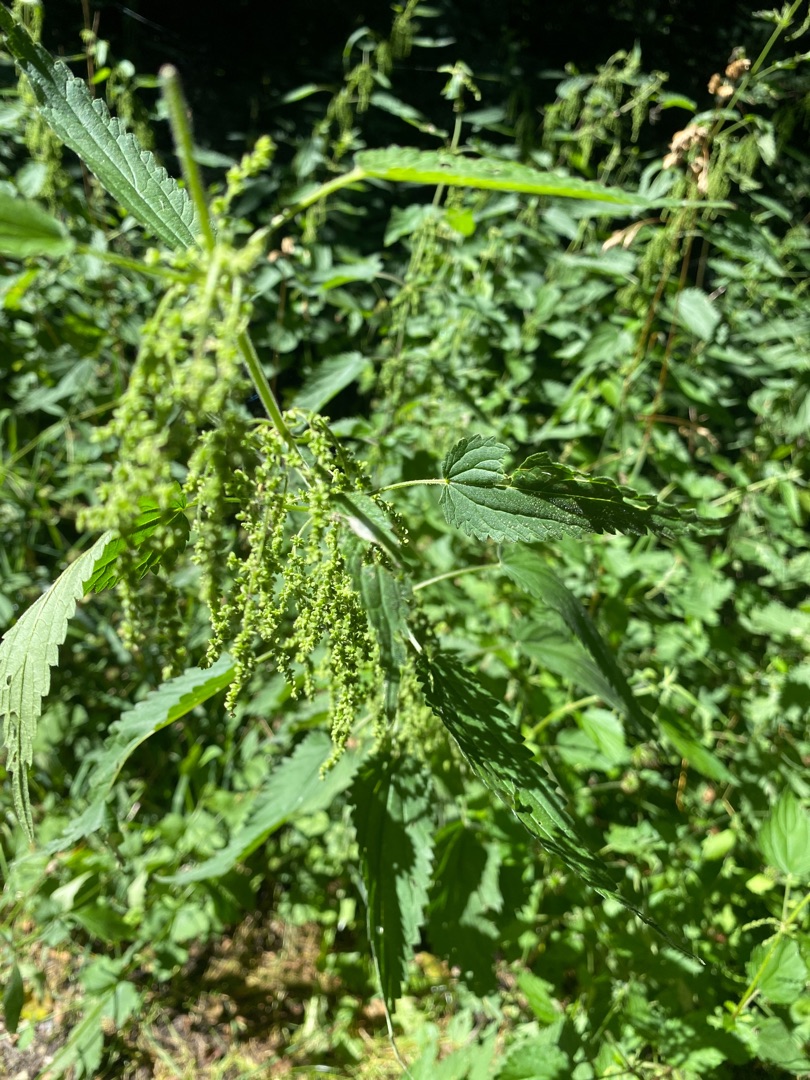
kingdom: Plantae
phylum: Tracheophyta
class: Magnoliopsida
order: Rosales
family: Urticaceae
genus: Urtica
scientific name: Urtica dioica
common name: Stor nælde
